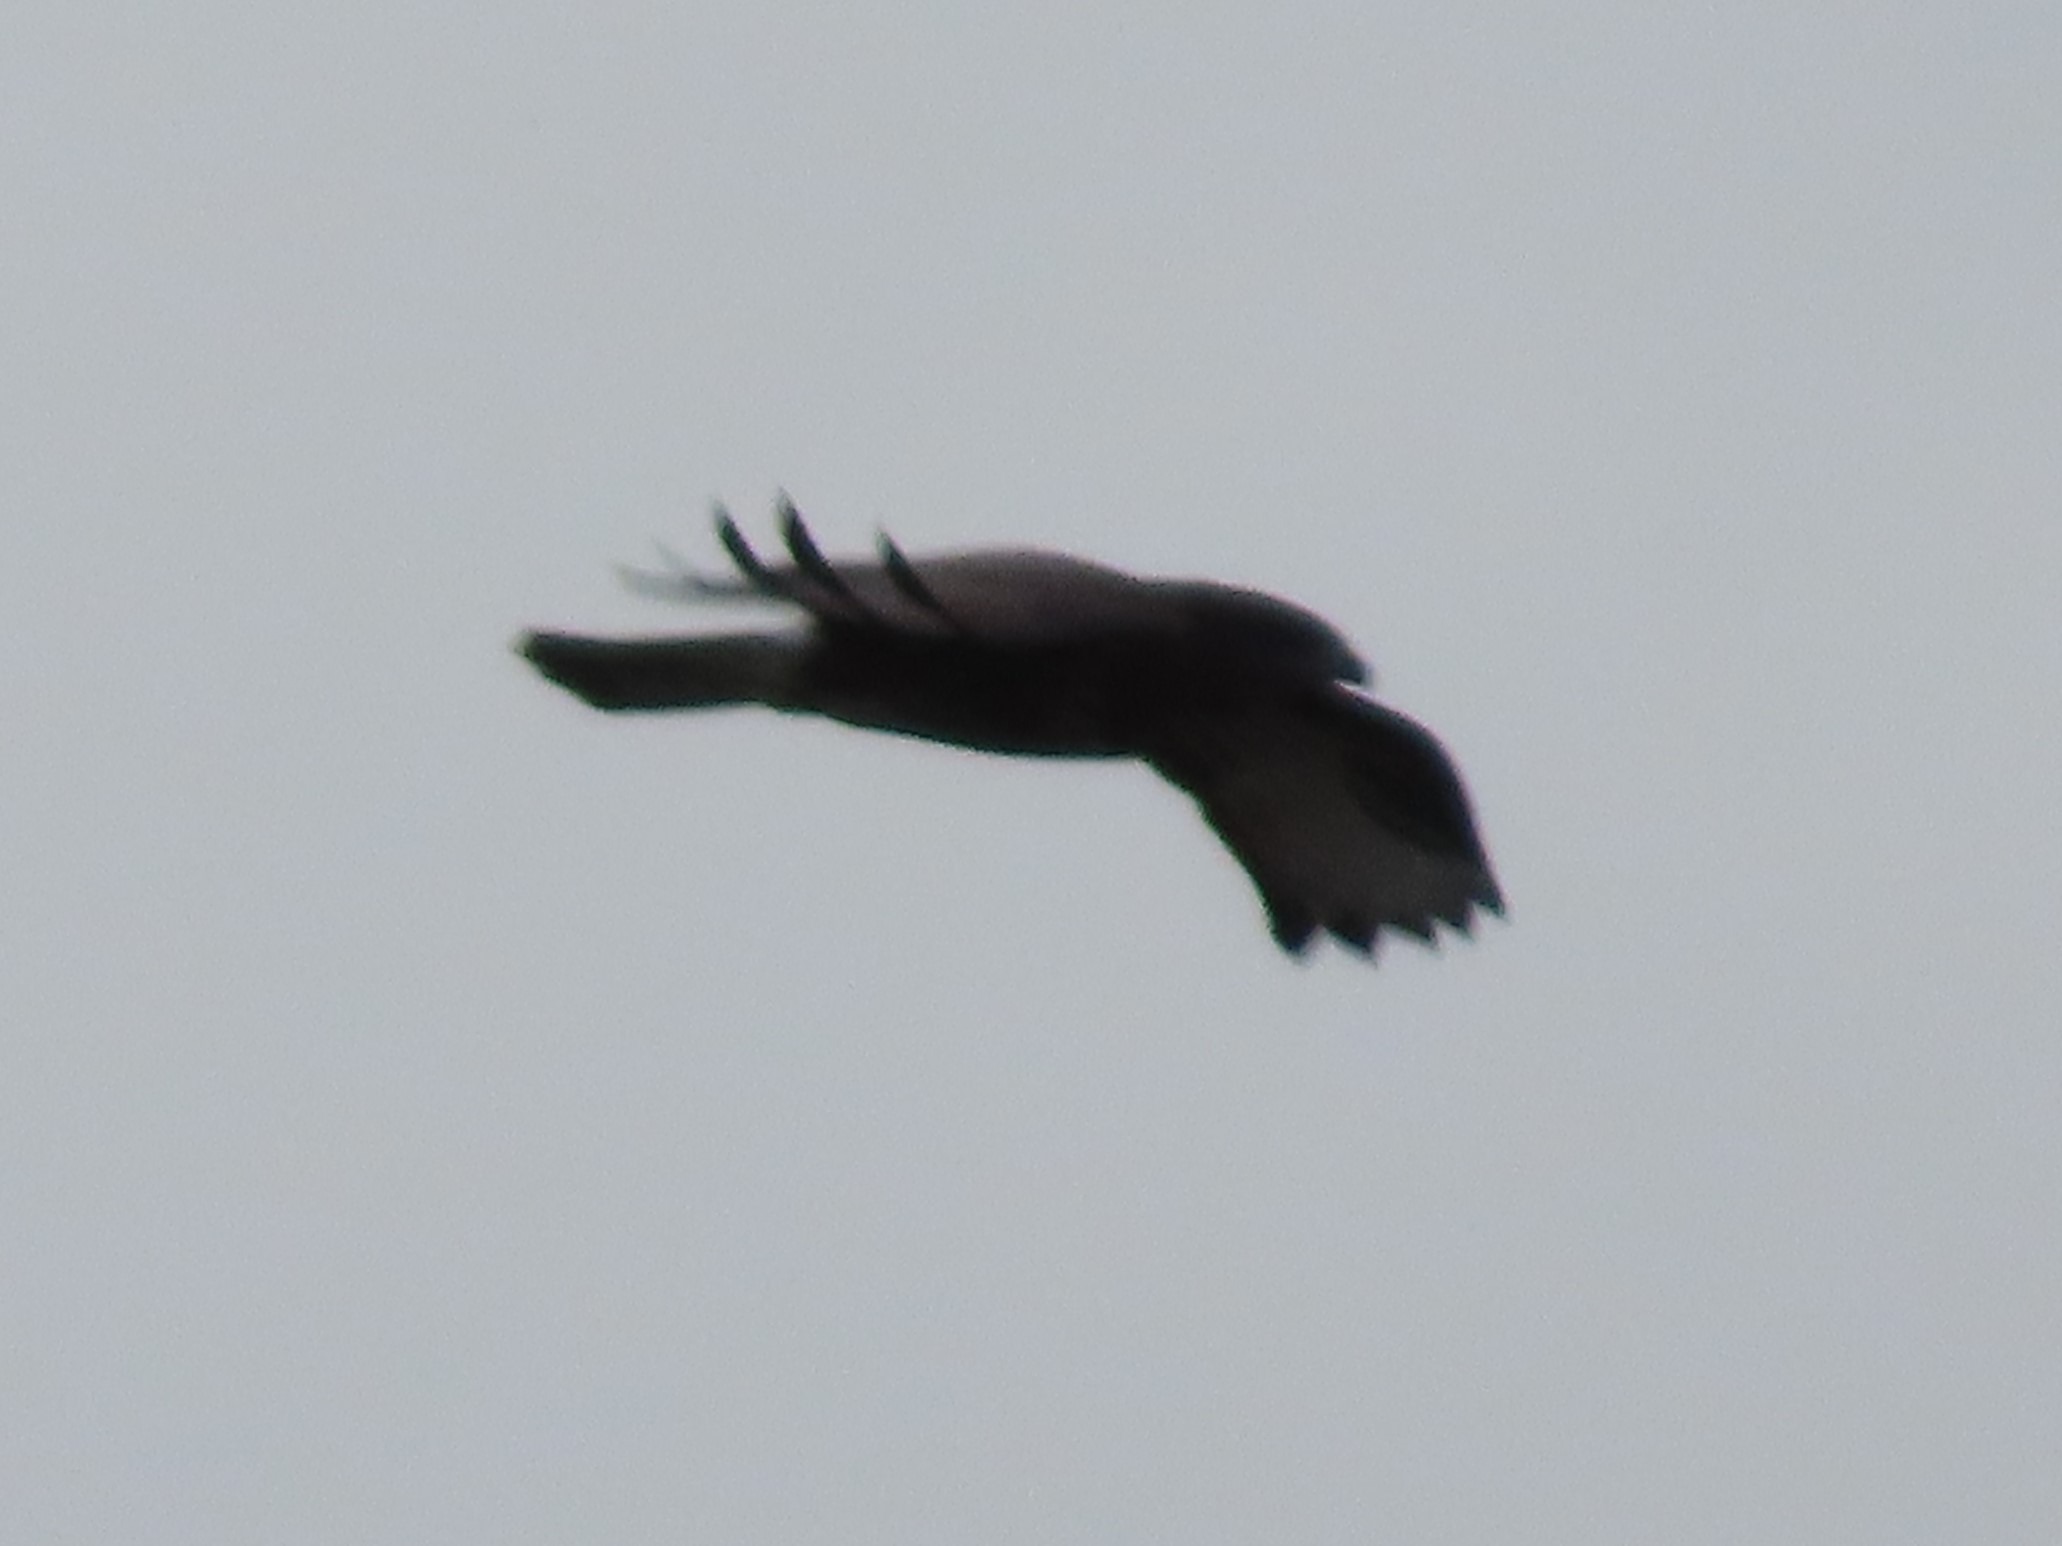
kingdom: Animalia
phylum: Chordata
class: Aves
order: Accipitriformes
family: Accipitridae
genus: Buteo
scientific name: Buteo buteo
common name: Musvåge
